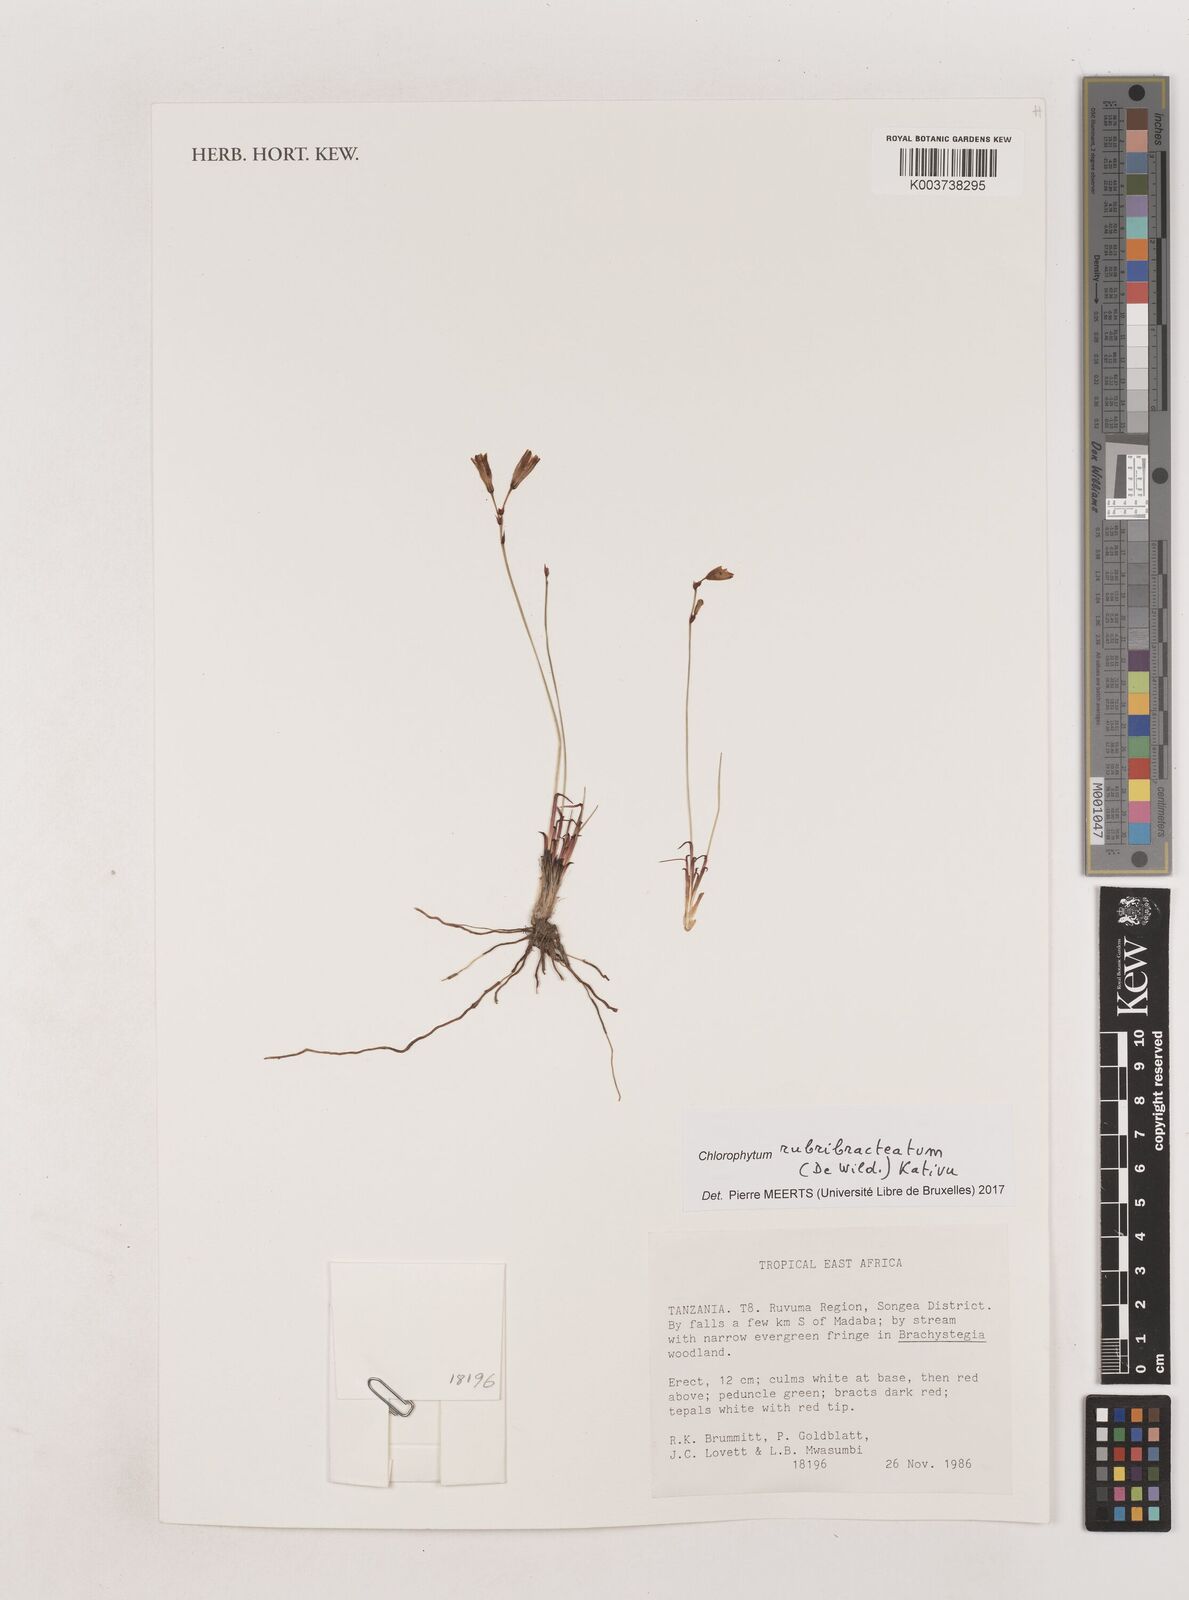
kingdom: Plantae
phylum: Tracheophyta
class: Liliopsida
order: Asparagales
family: Asparagaceae
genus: Chlorophytum
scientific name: Chlorophytum rubribracteatum
